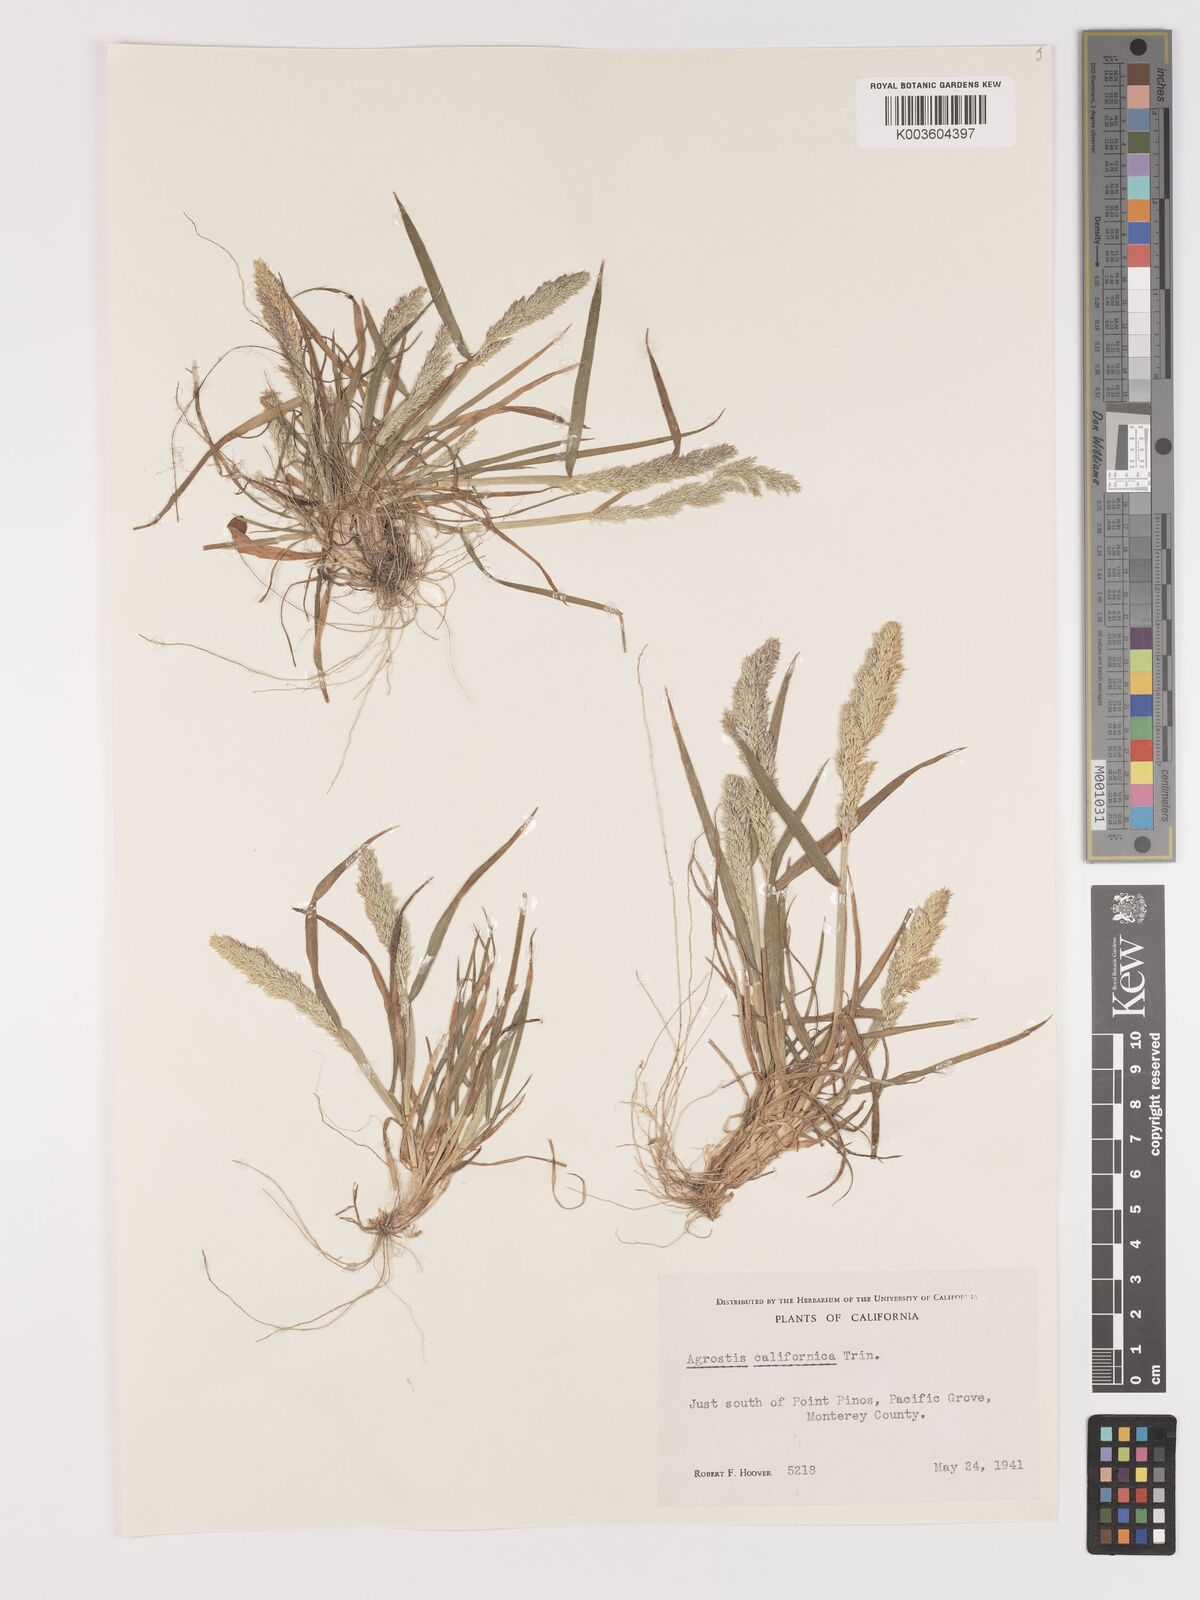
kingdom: Plantae
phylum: Tracheophyta
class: Liliopsida
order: Poales
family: Poaceae
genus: Agrostis
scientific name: Agrostis tolucensis
